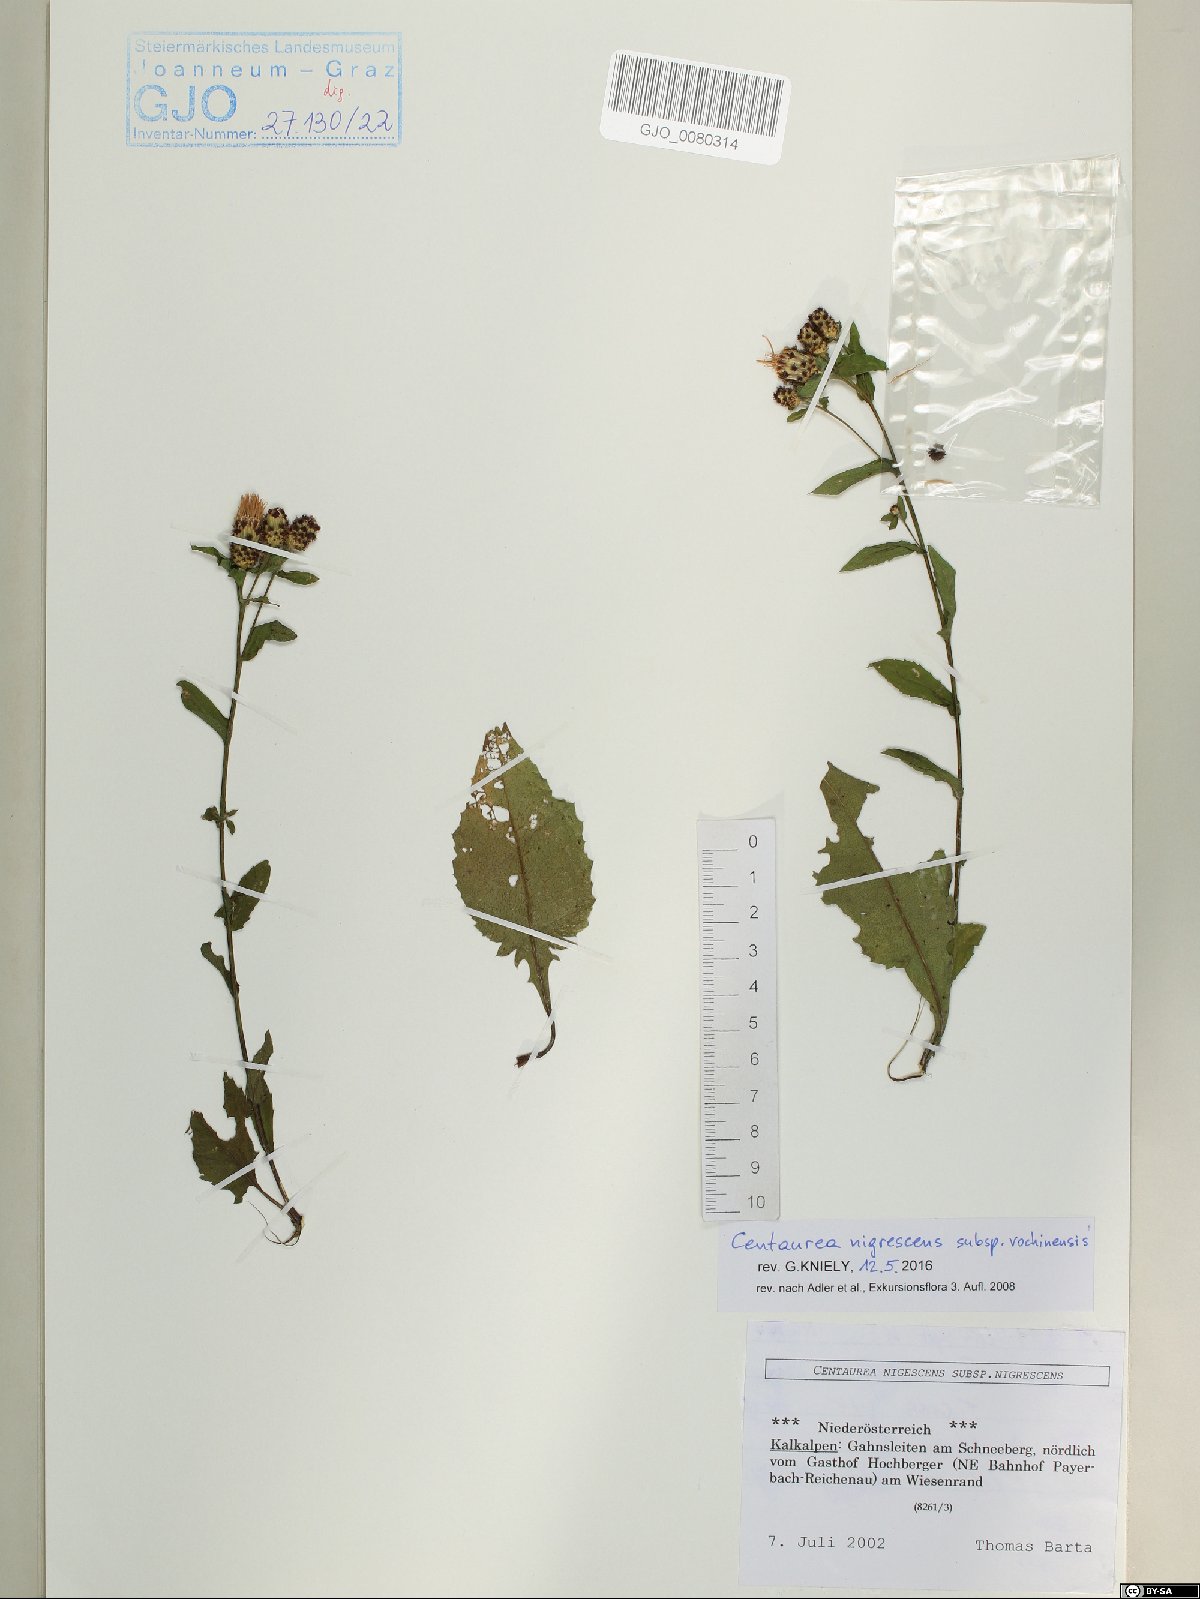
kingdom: Plantae
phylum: Tracheophyta
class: Magnoliopsida
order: Asterales
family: Asteraceae
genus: Centaurea
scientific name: Centaurea carniolica
